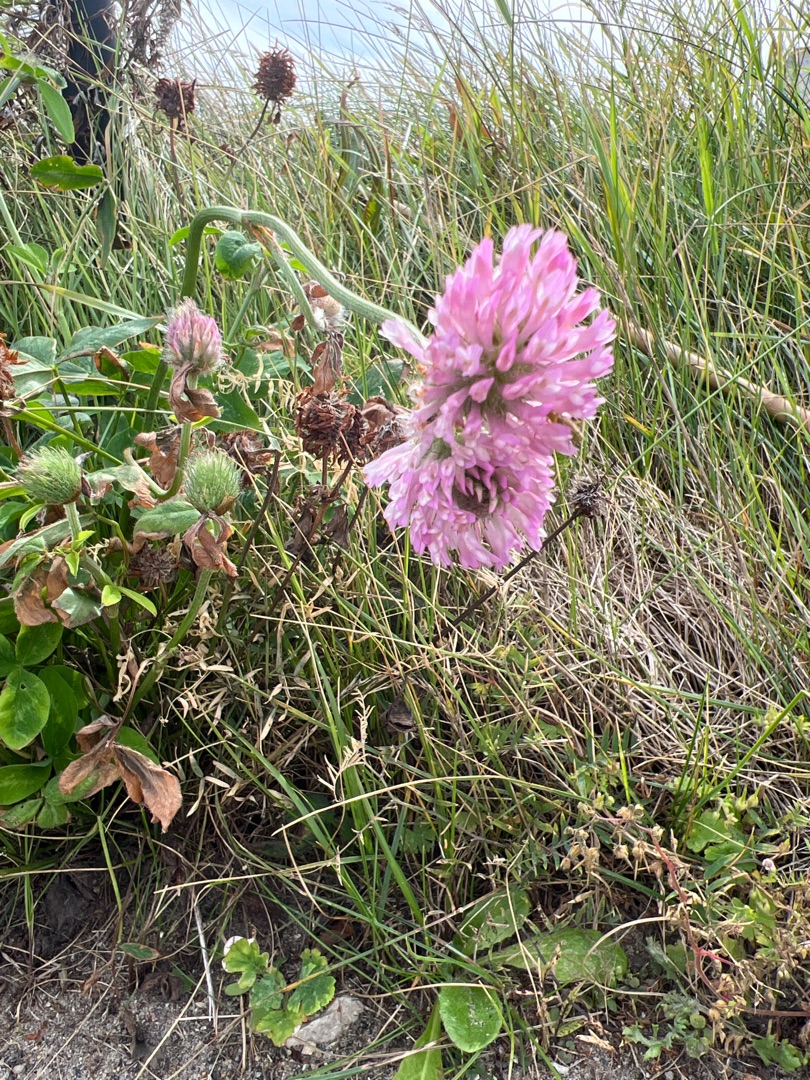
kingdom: Plantae
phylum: Tracheophyta
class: Magnoliopsida
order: Fabales
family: Fabaceae
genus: Trifolium
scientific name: Trifolium pratense
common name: Rød-kløver
